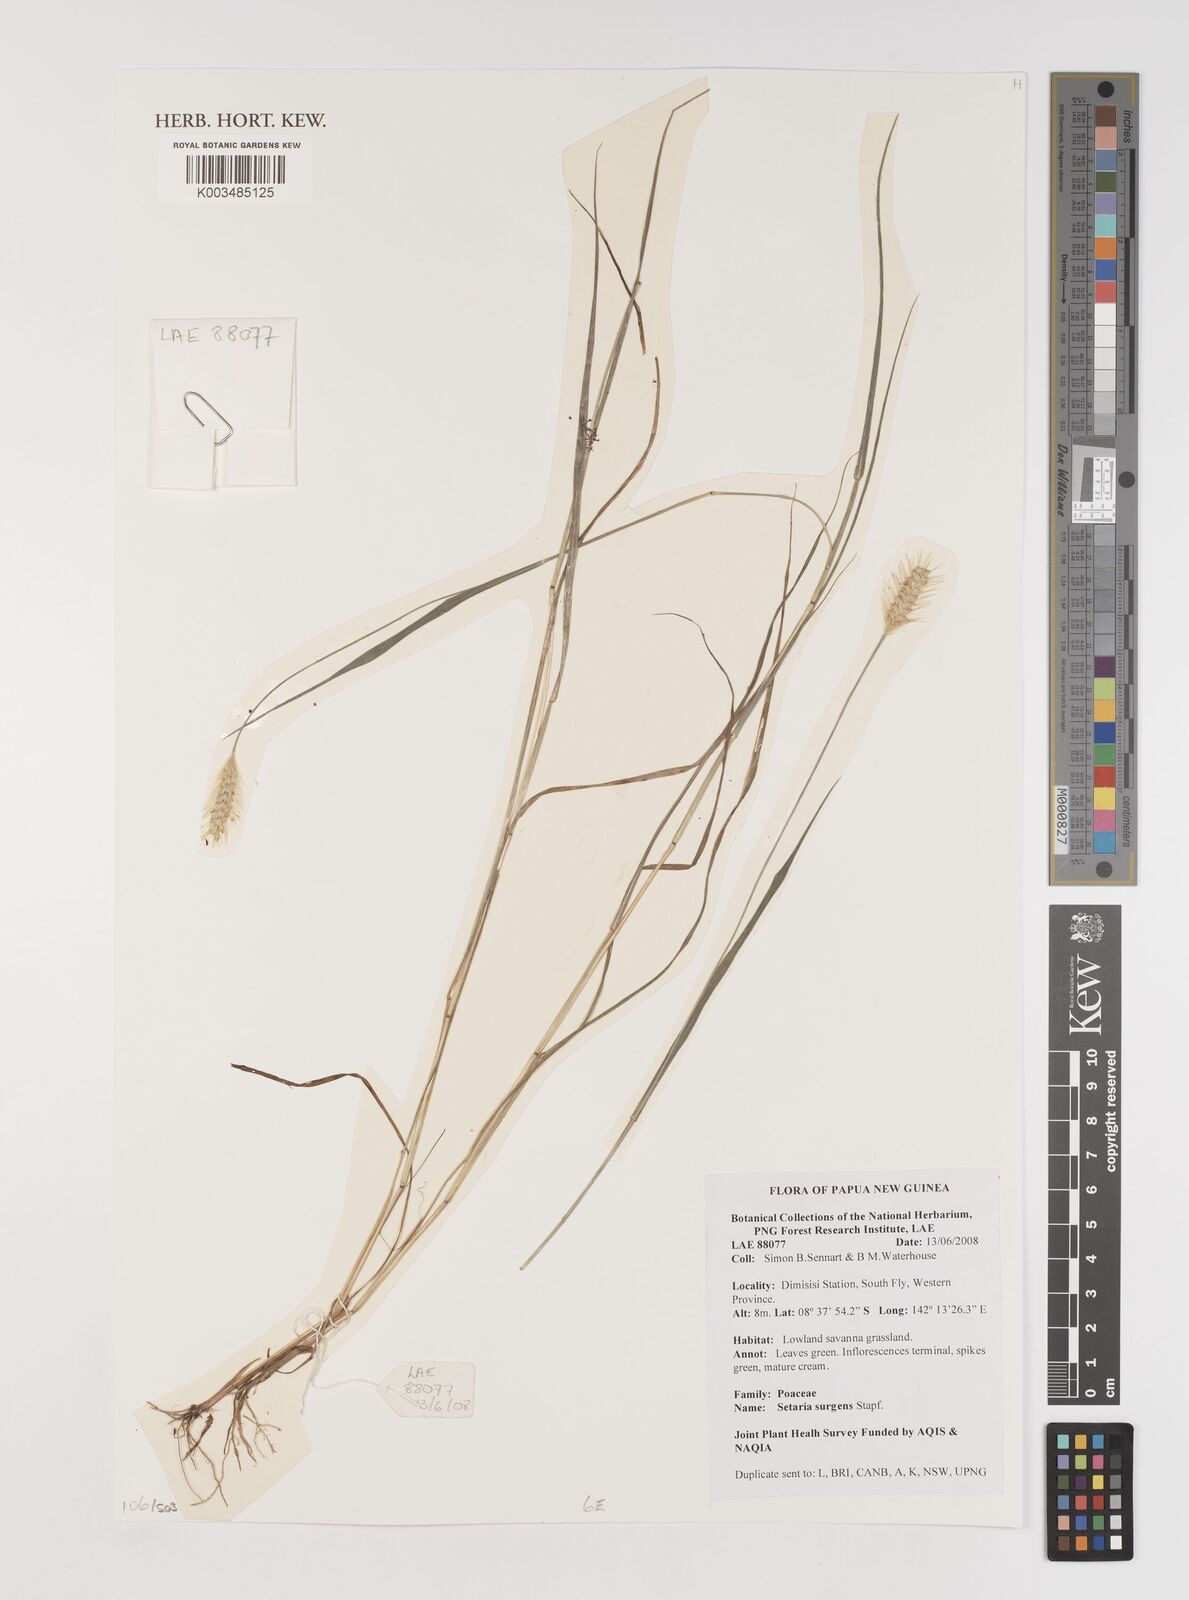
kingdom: Plantae
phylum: Tracheophyta
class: Liliopsida
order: Poales
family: Poaceae
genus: Setaria
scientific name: Setaria apiculata
